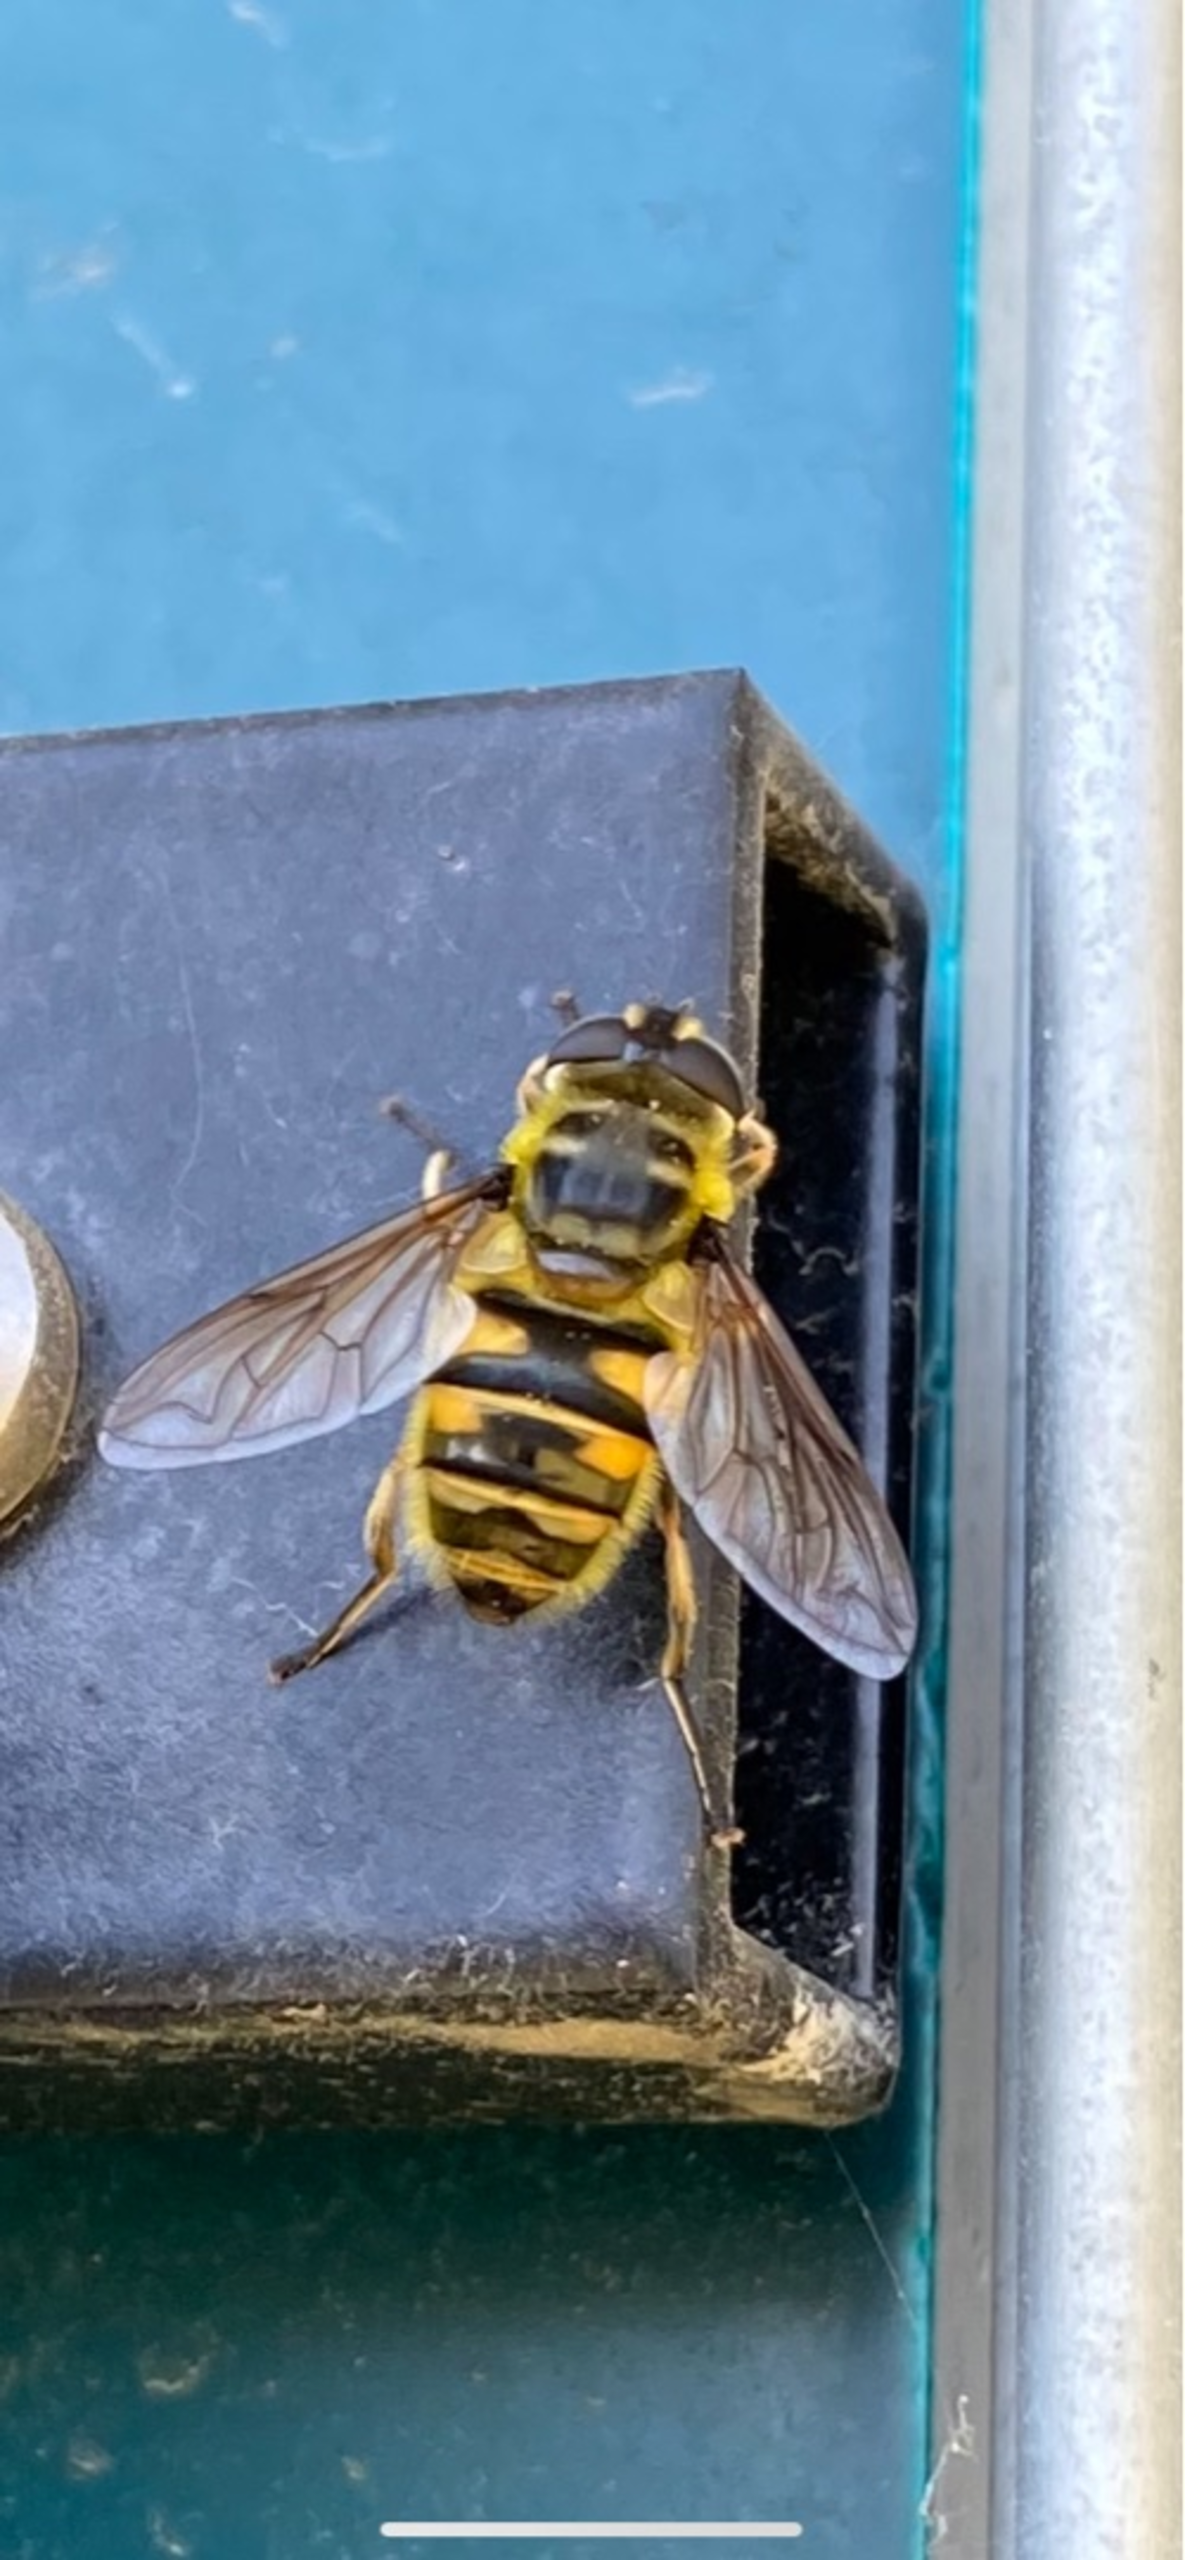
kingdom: Animalia
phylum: Arthropoda
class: Insecta
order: Diptera
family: Syrphidae
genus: Myathropa
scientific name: Myathropa florea
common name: Dødningehoved-svirreflue
